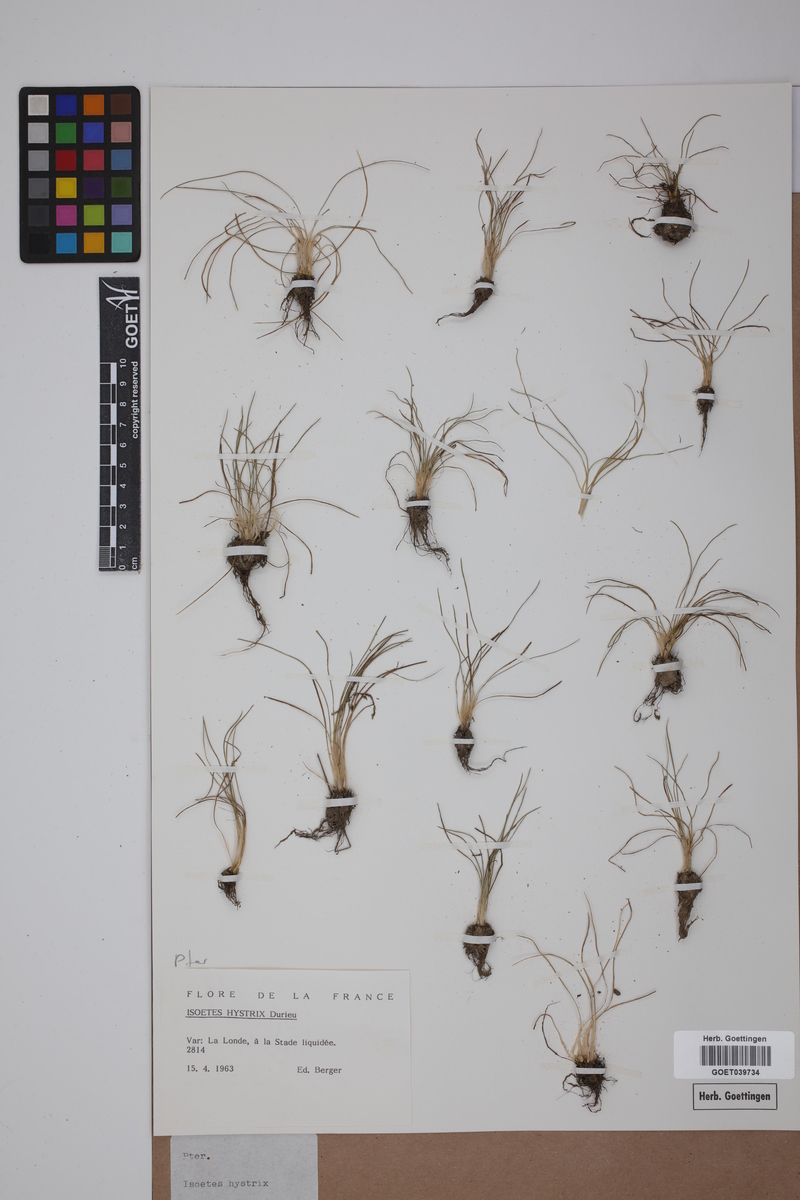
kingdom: Plantae
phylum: Tracheophyta
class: Lycopodiopsida
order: Isoetales
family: Isoetaceae
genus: Isoetes
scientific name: Isoetes histrix
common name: Land quillwort
